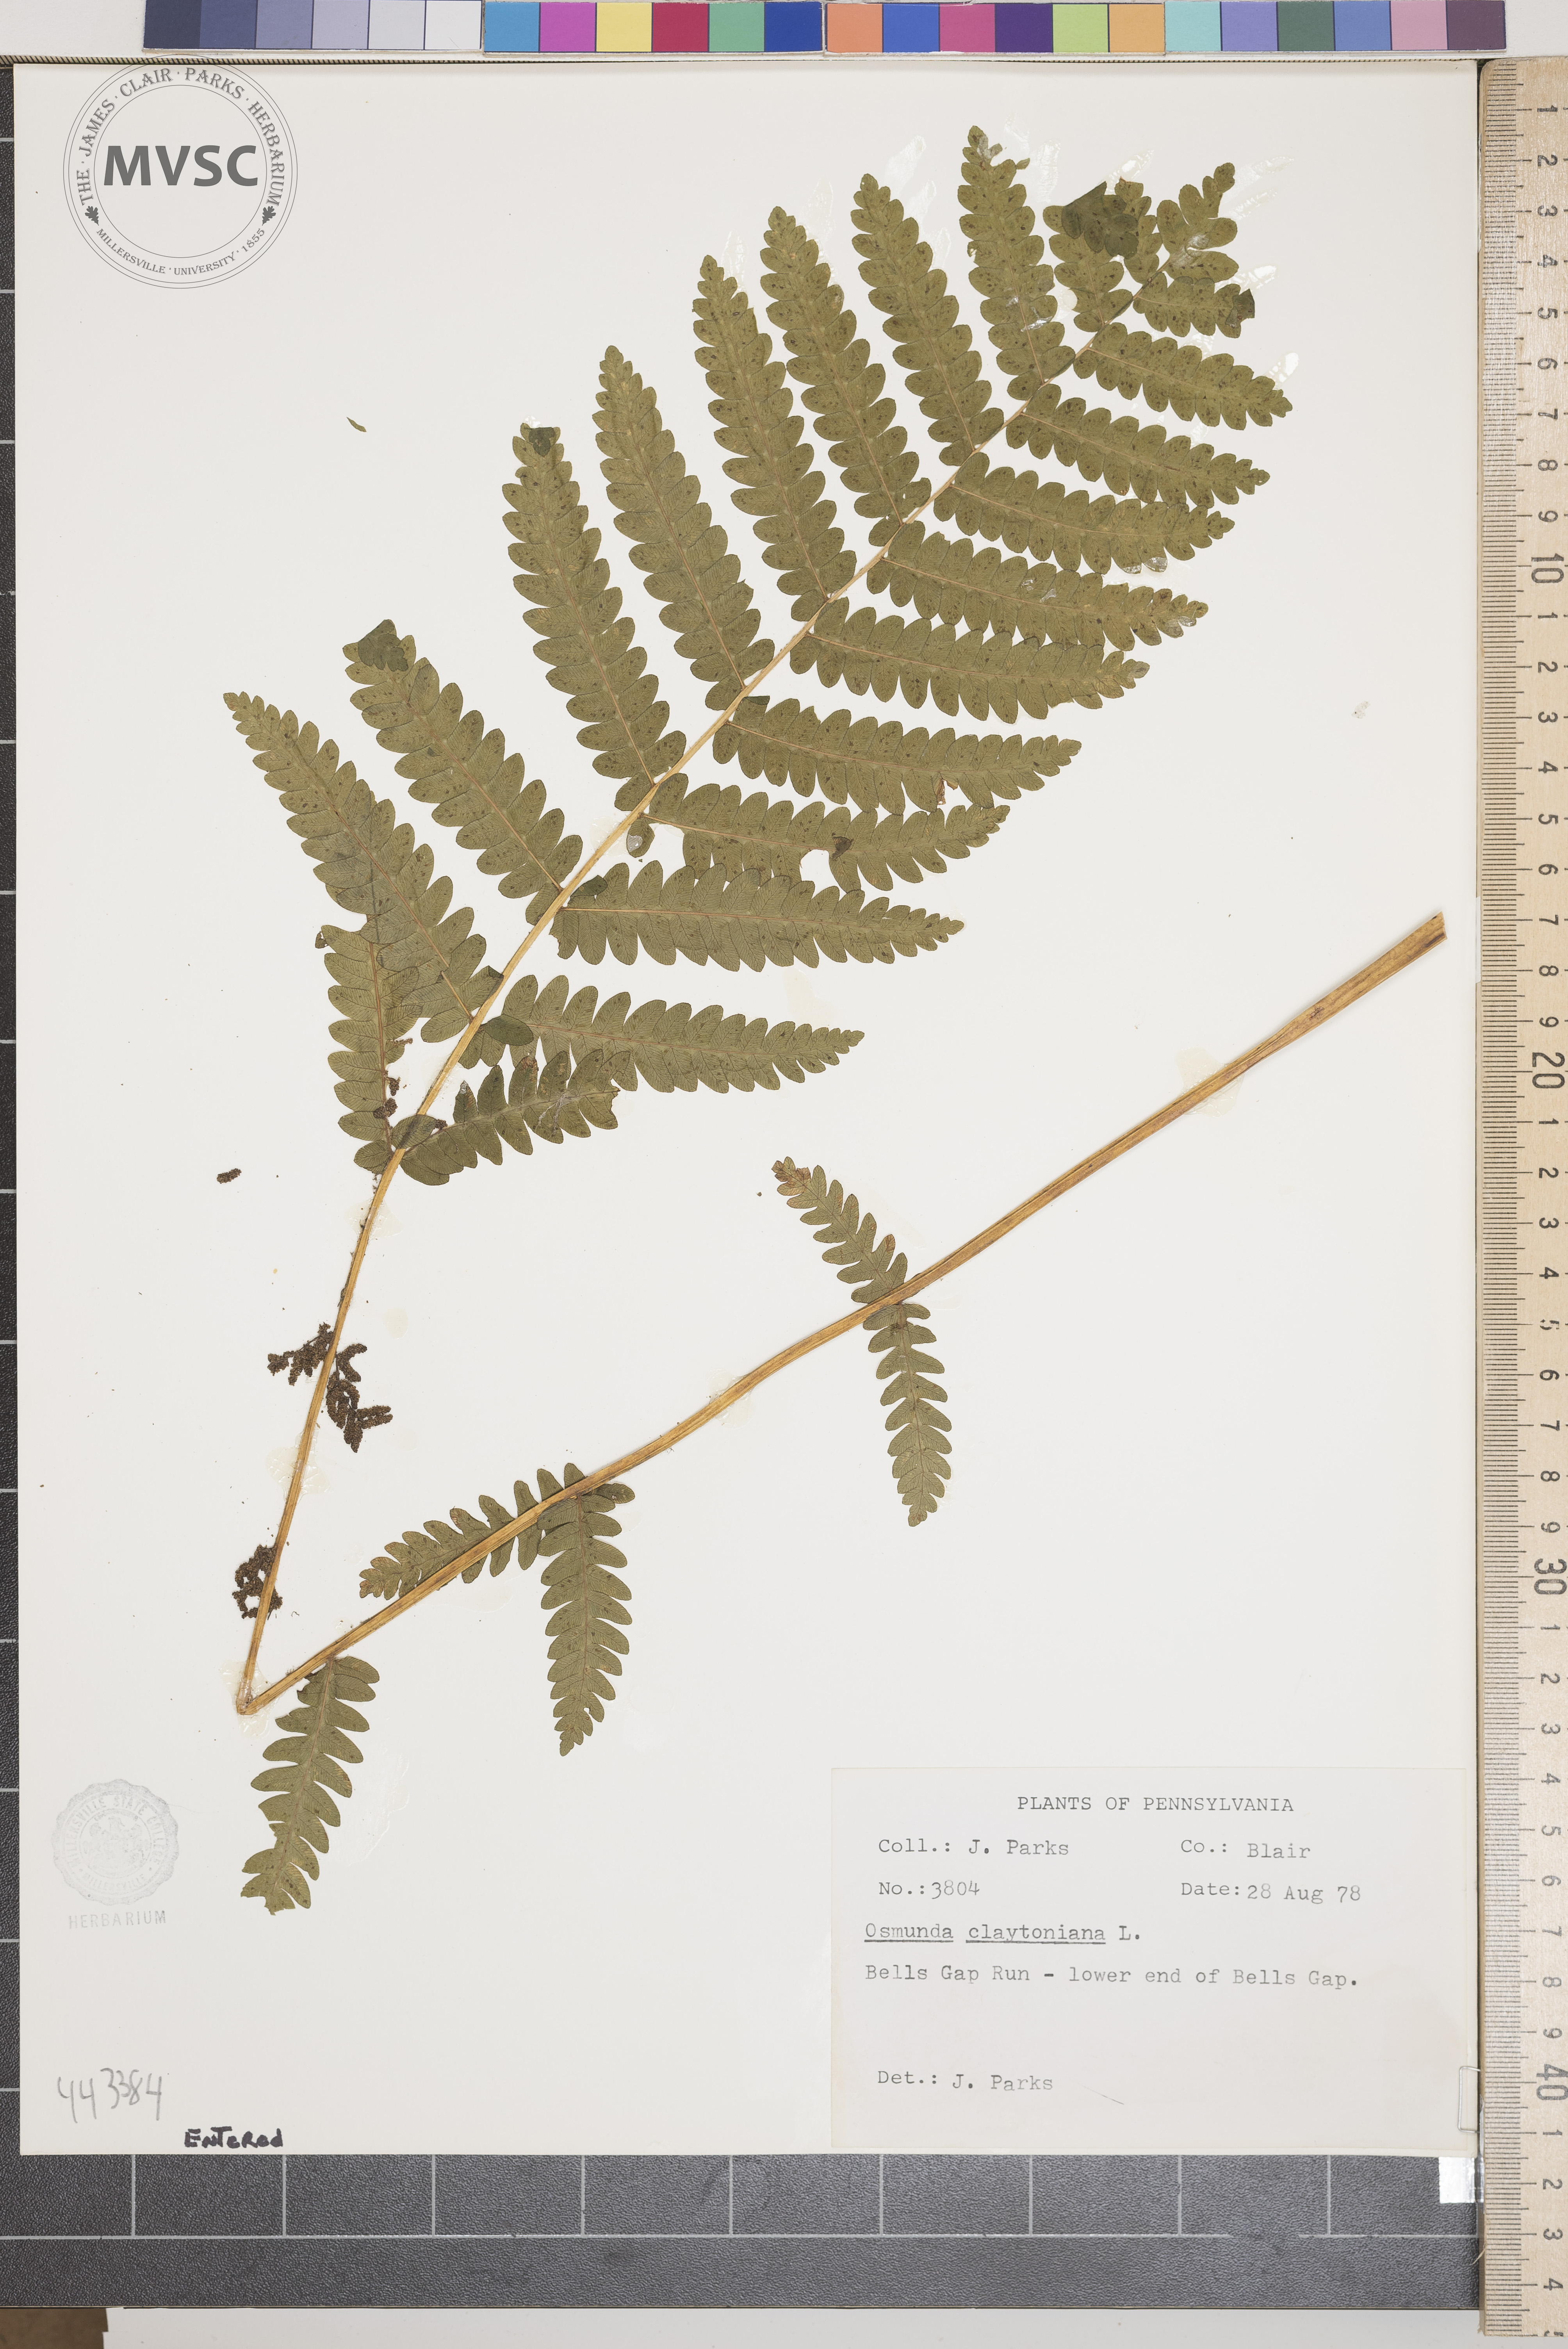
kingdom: Plantae
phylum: Tracheophyta
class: Polypodiopsida
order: Osmundales
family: Osmundaceae
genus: Claytosmunda
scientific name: Claytosmunda claytoniana
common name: Clayton's fern
